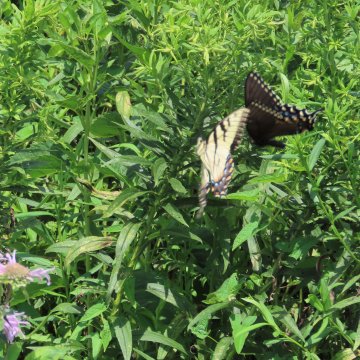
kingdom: Animalia
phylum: Arthropoda
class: Insecta
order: Lepidoptera
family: Papilionidae
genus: Pterourus
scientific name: Pterourus glaucus
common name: Eastern Tiger Swallowtail
